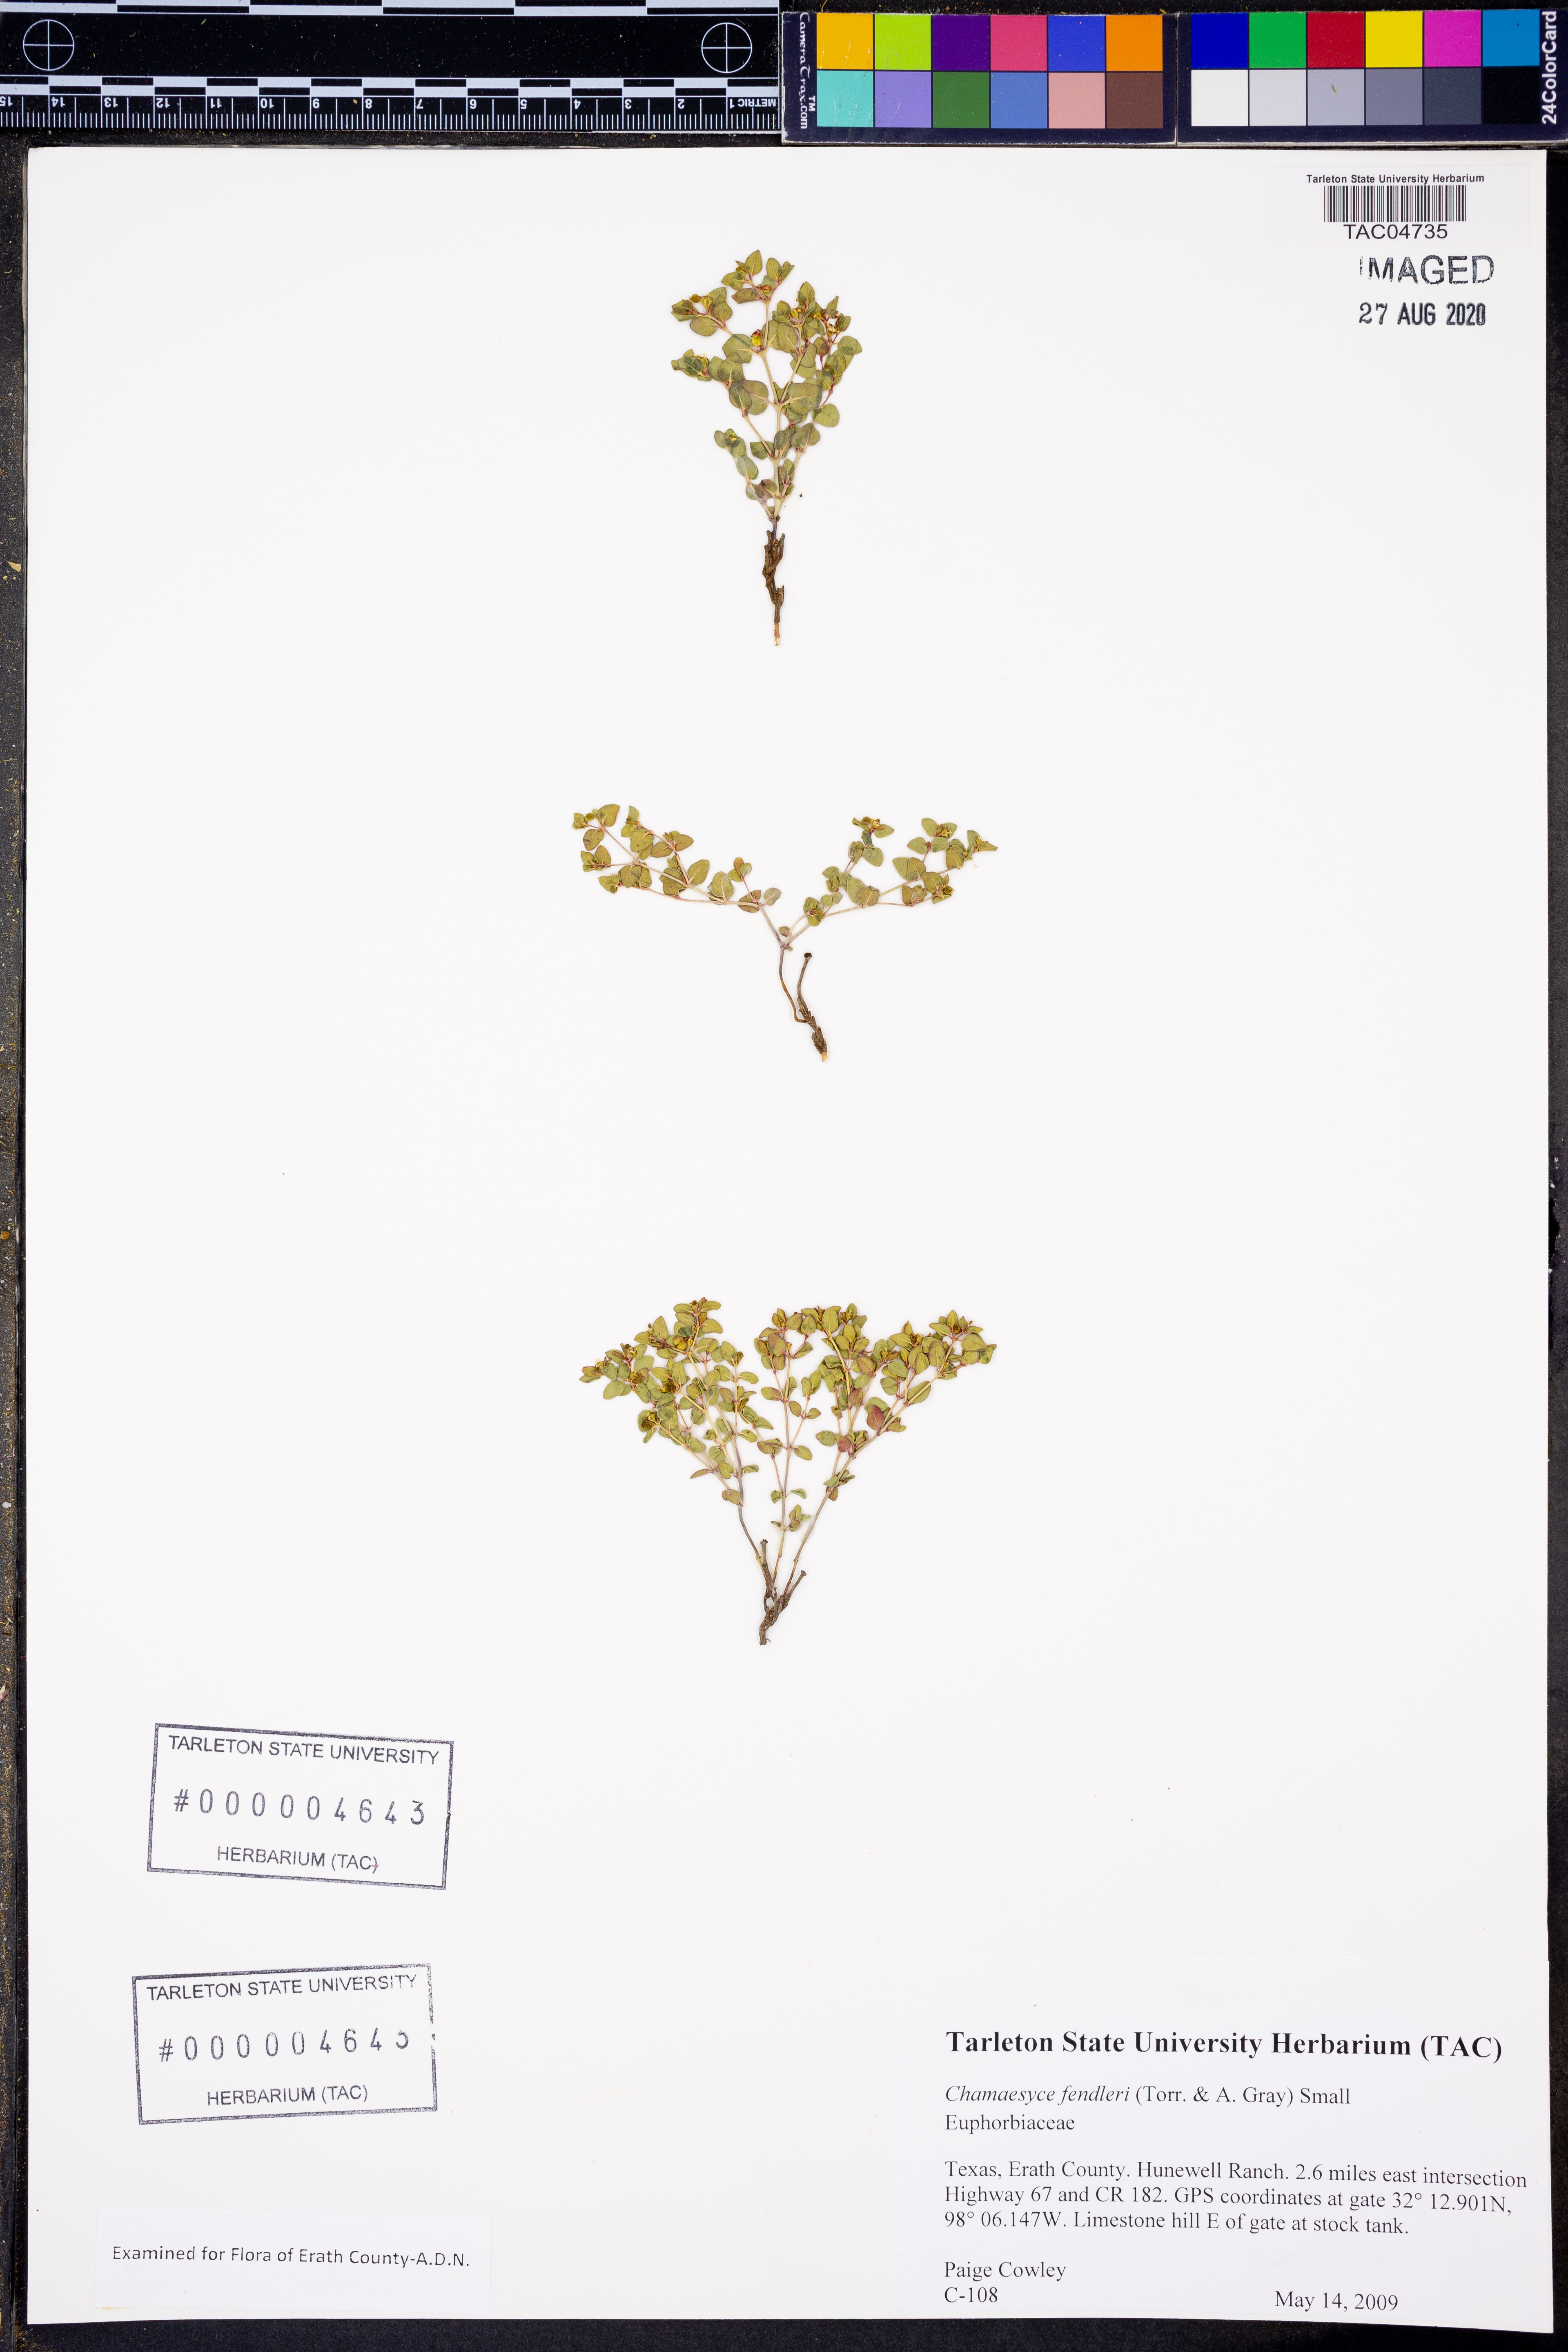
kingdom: Plantae
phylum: Tracheophyta
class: Magnoliopsida
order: Malpighiales
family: Euphorbiaceae
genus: Euphorbia
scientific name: Euphorbia fendleri
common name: Fendler's euphorbia
